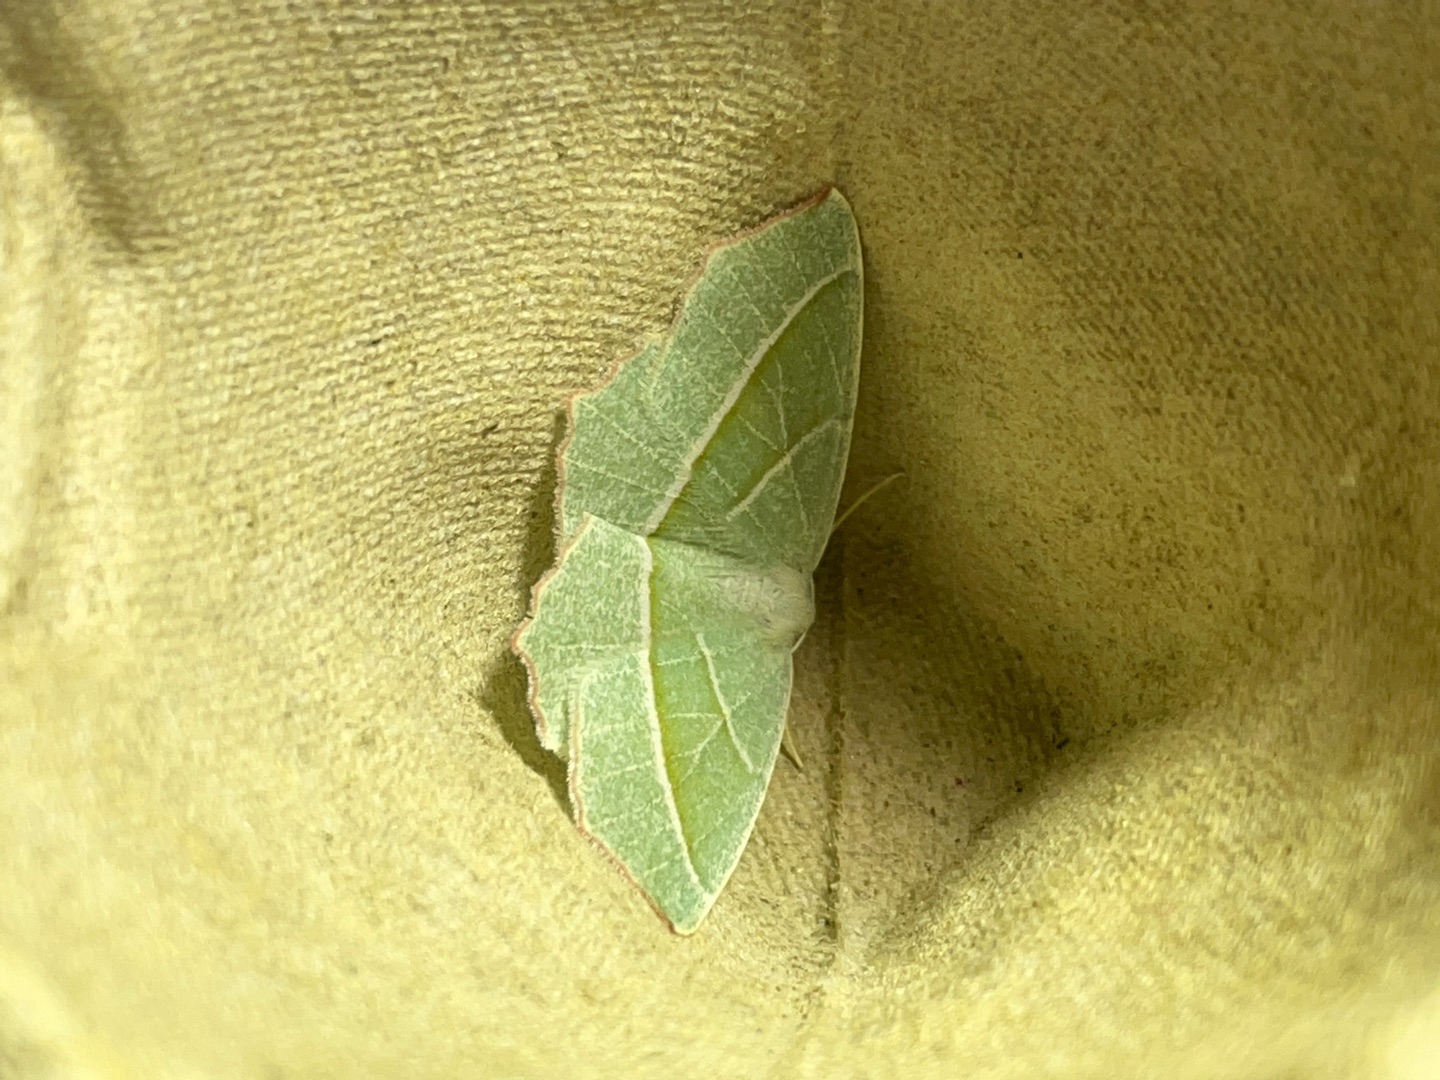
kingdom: Animalia
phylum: Arthropoda
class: Insecta
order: Lepidoptera
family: Geometridae
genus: Campaea
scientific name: Campaea margaritaria
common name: Perlemåler
